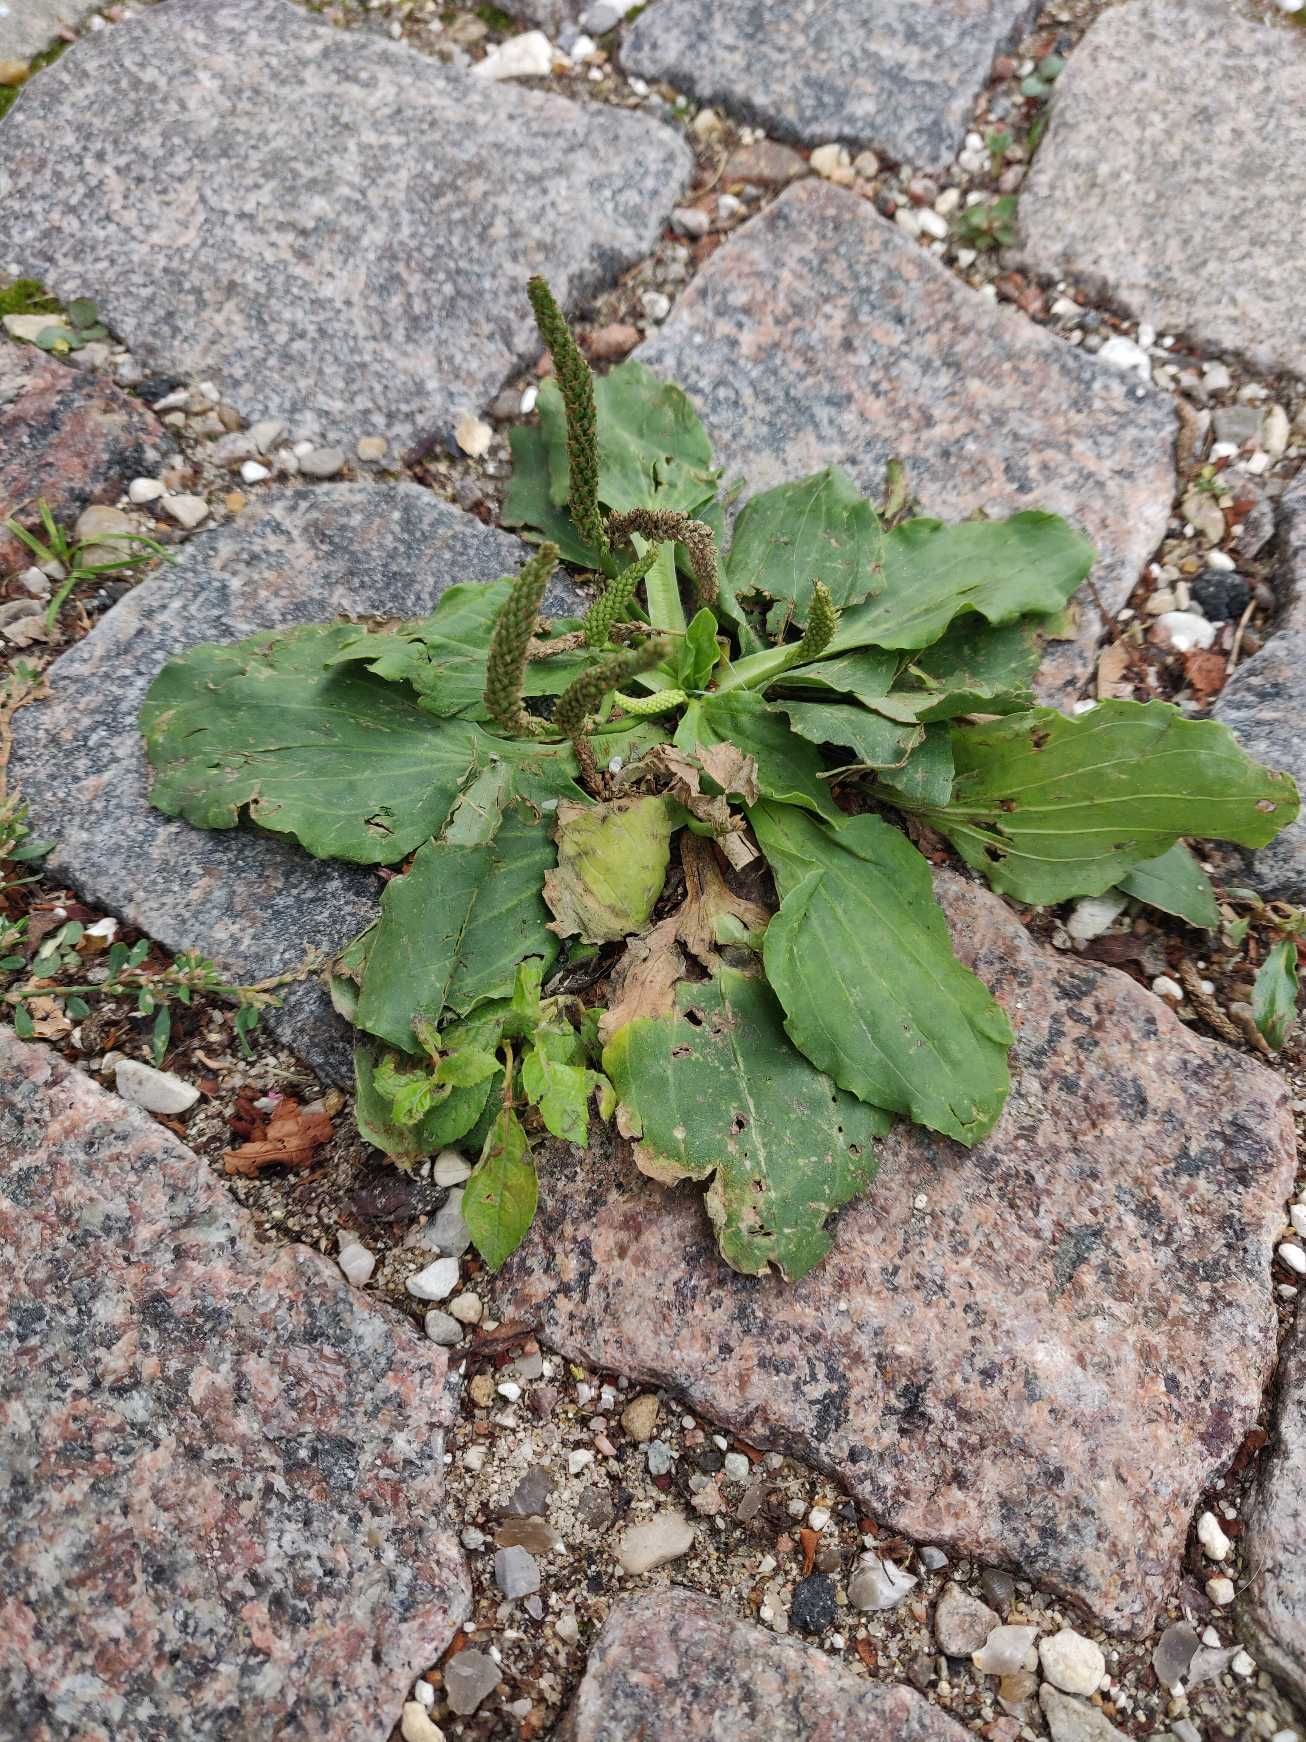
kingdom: Plantae
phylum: Tracheophyta
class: Magnoliopsida
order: Lamiales
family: Plantaginaceae
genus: Plantago
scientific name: Plantago major
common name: Glat vejbred
